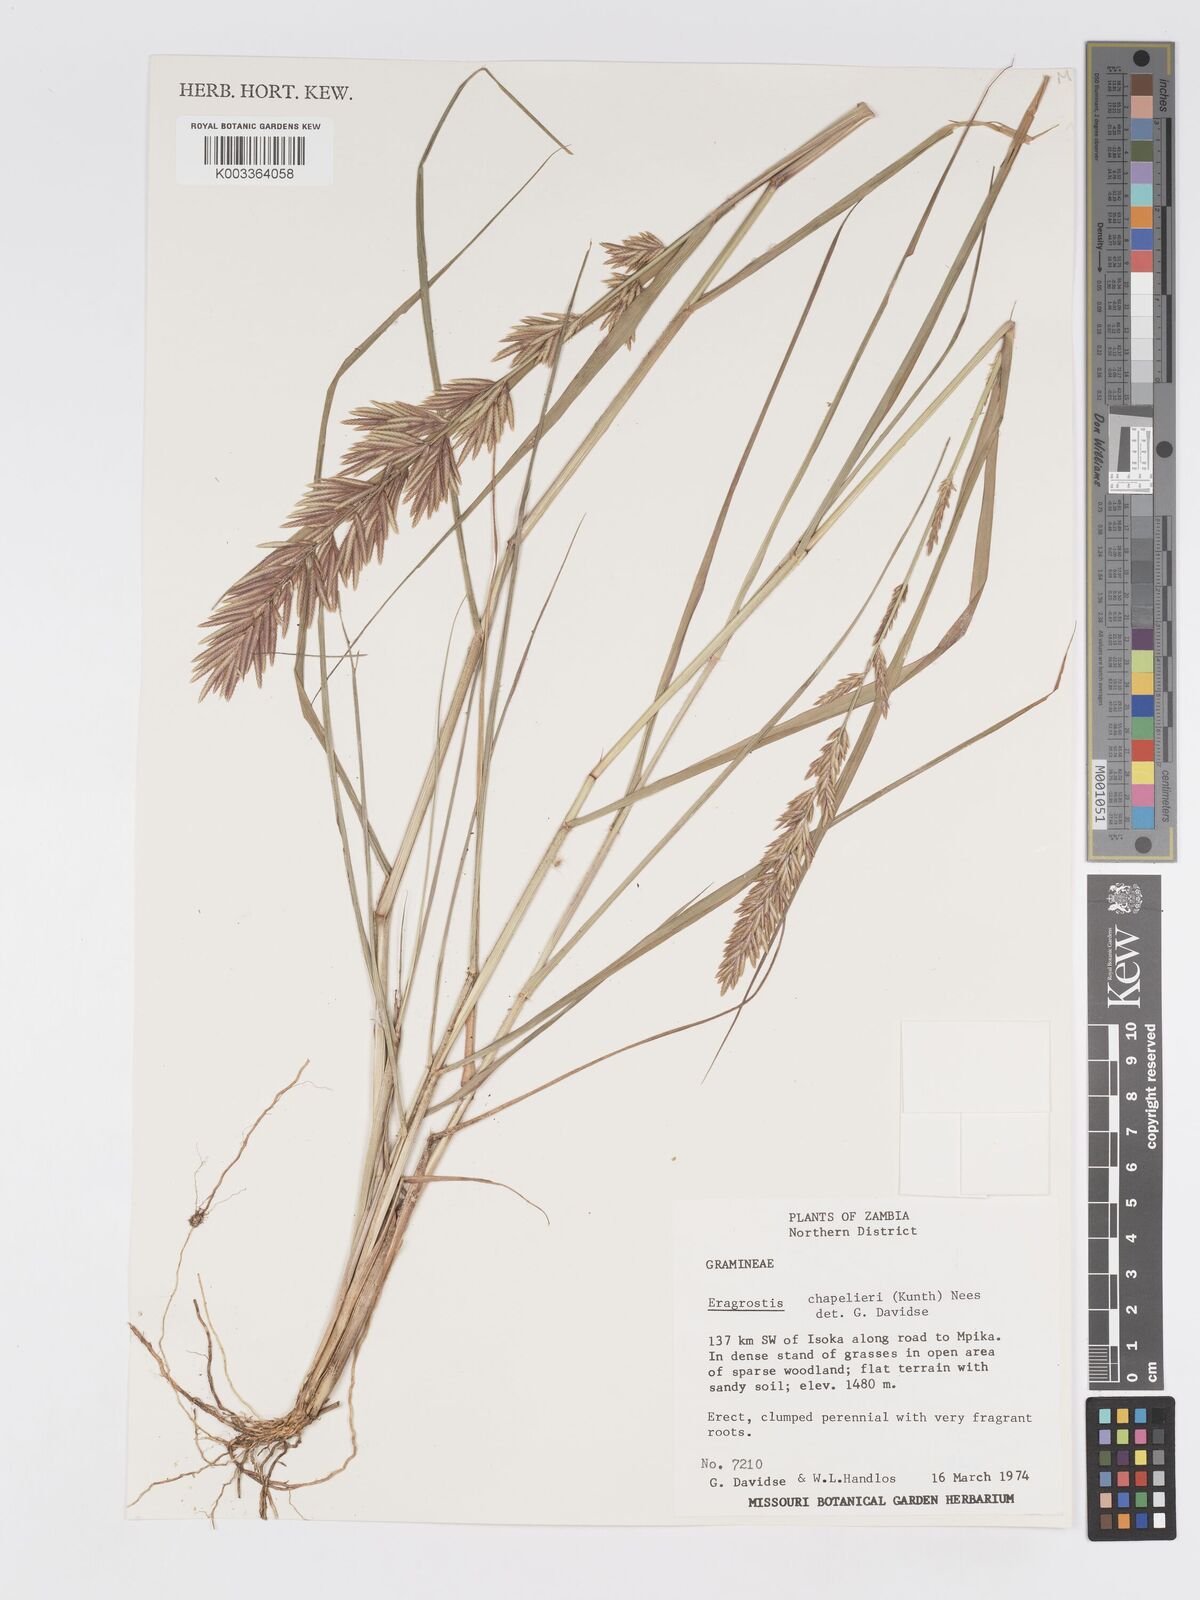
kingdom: Plantae
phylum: Tracheophyta
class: Liliopsida
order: Poales
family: Poaceae
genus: Eragrostis
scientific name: Eragrostis chapelieri
